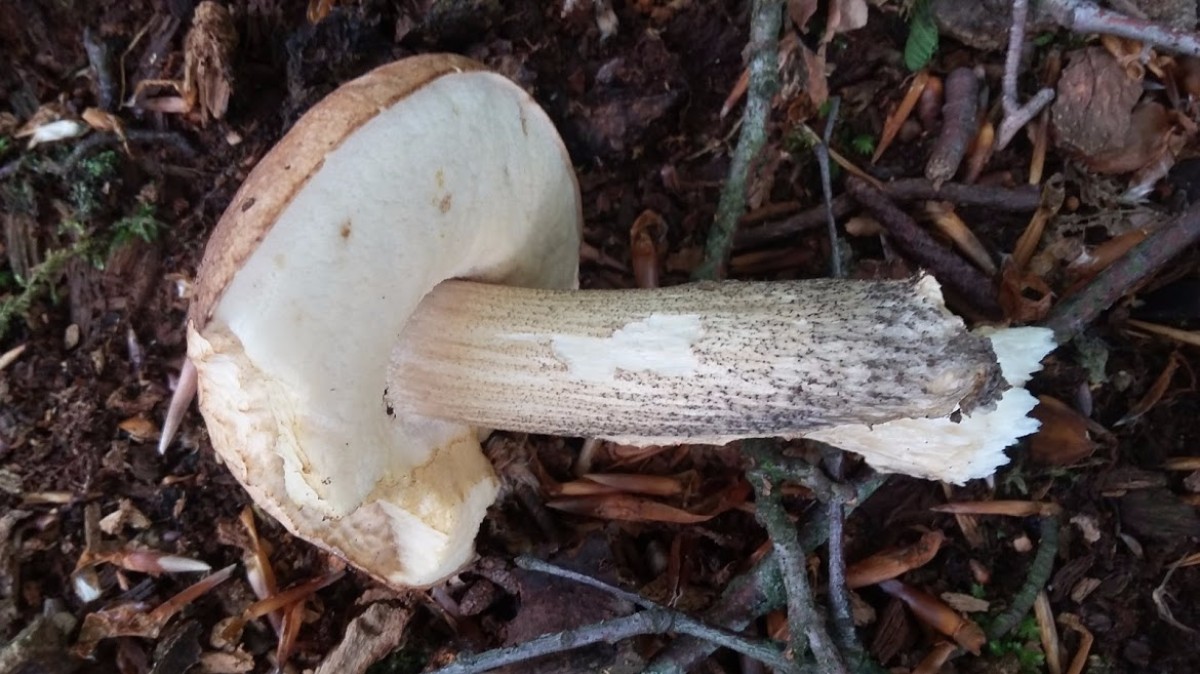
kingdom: Fungi
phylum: Basidiomycota
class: Agaricomycetes
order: Boletales
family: Boletaceae
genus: Leccinellum
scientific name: Leccinellum
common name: skælrørhat
